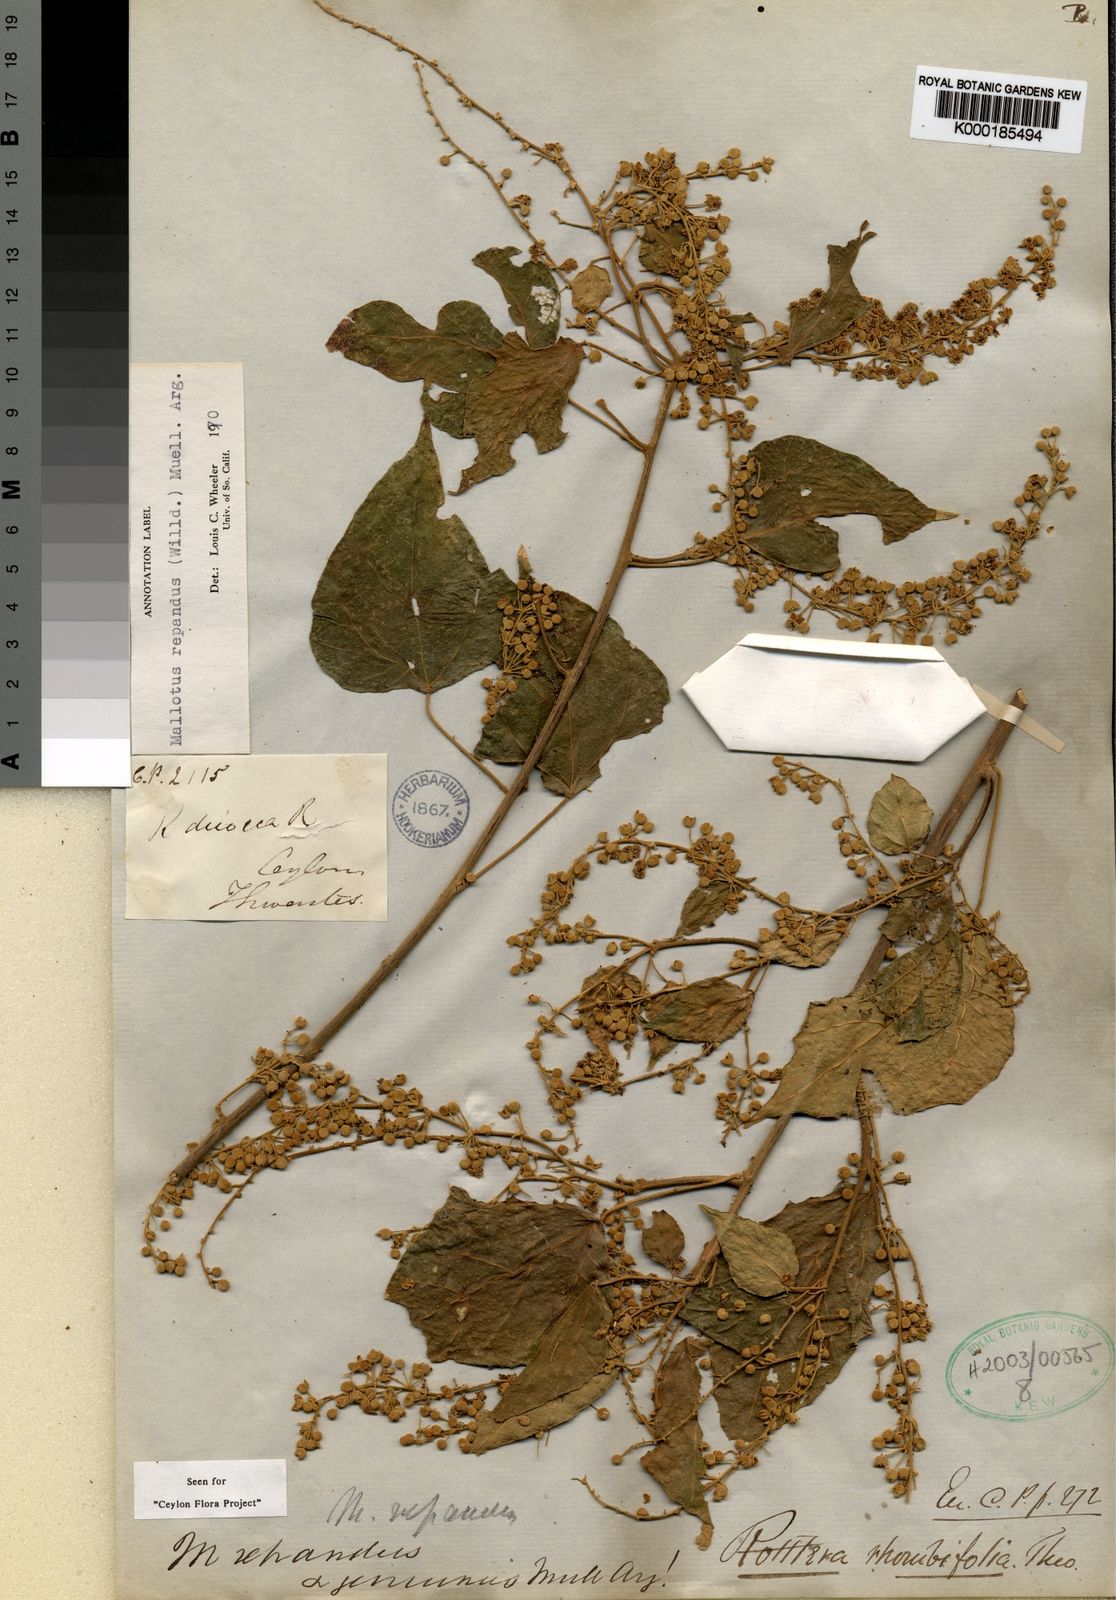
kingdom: Plantae
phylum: Tracheophyta
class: Magnoliopsida
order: Malpighiales
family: Euphorbiaceae
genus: Mallotus
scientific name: Mallotus repandus
